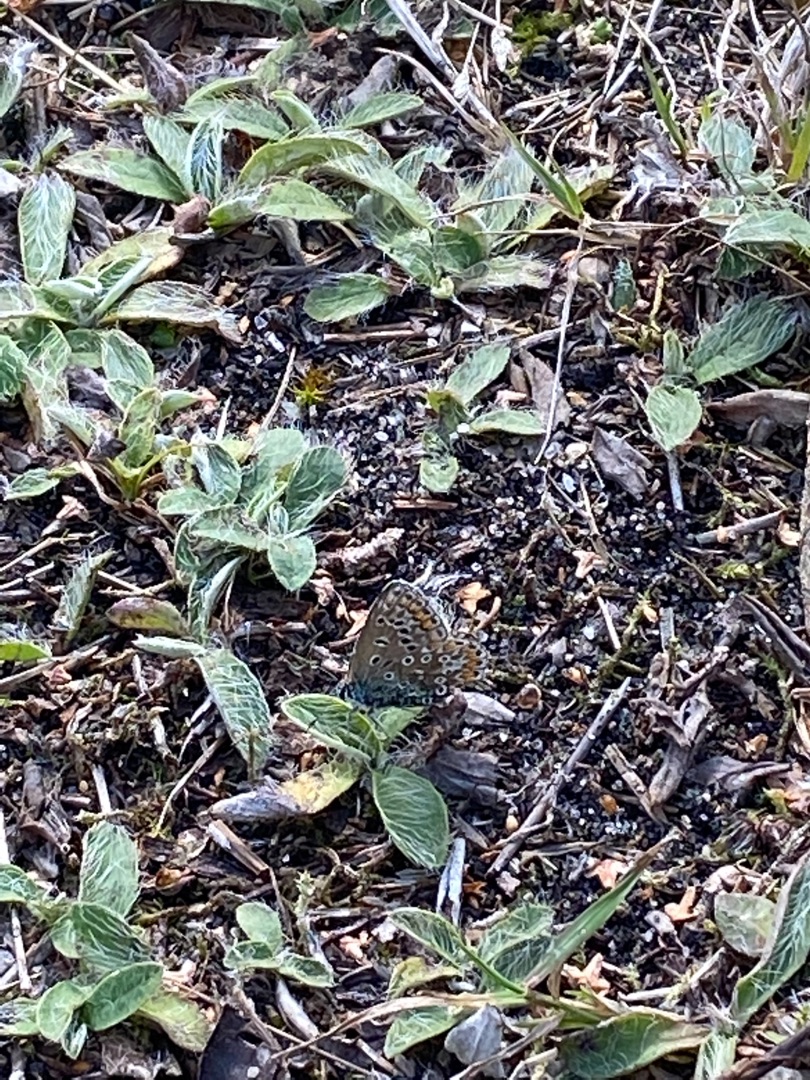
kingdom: Animalia
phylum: Arthropoda
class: Insecta
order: Lepidoptera
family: Lycaenidae
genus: Polyommatus
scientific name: Polyommatus icarus
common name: Almindelig blåfugl
